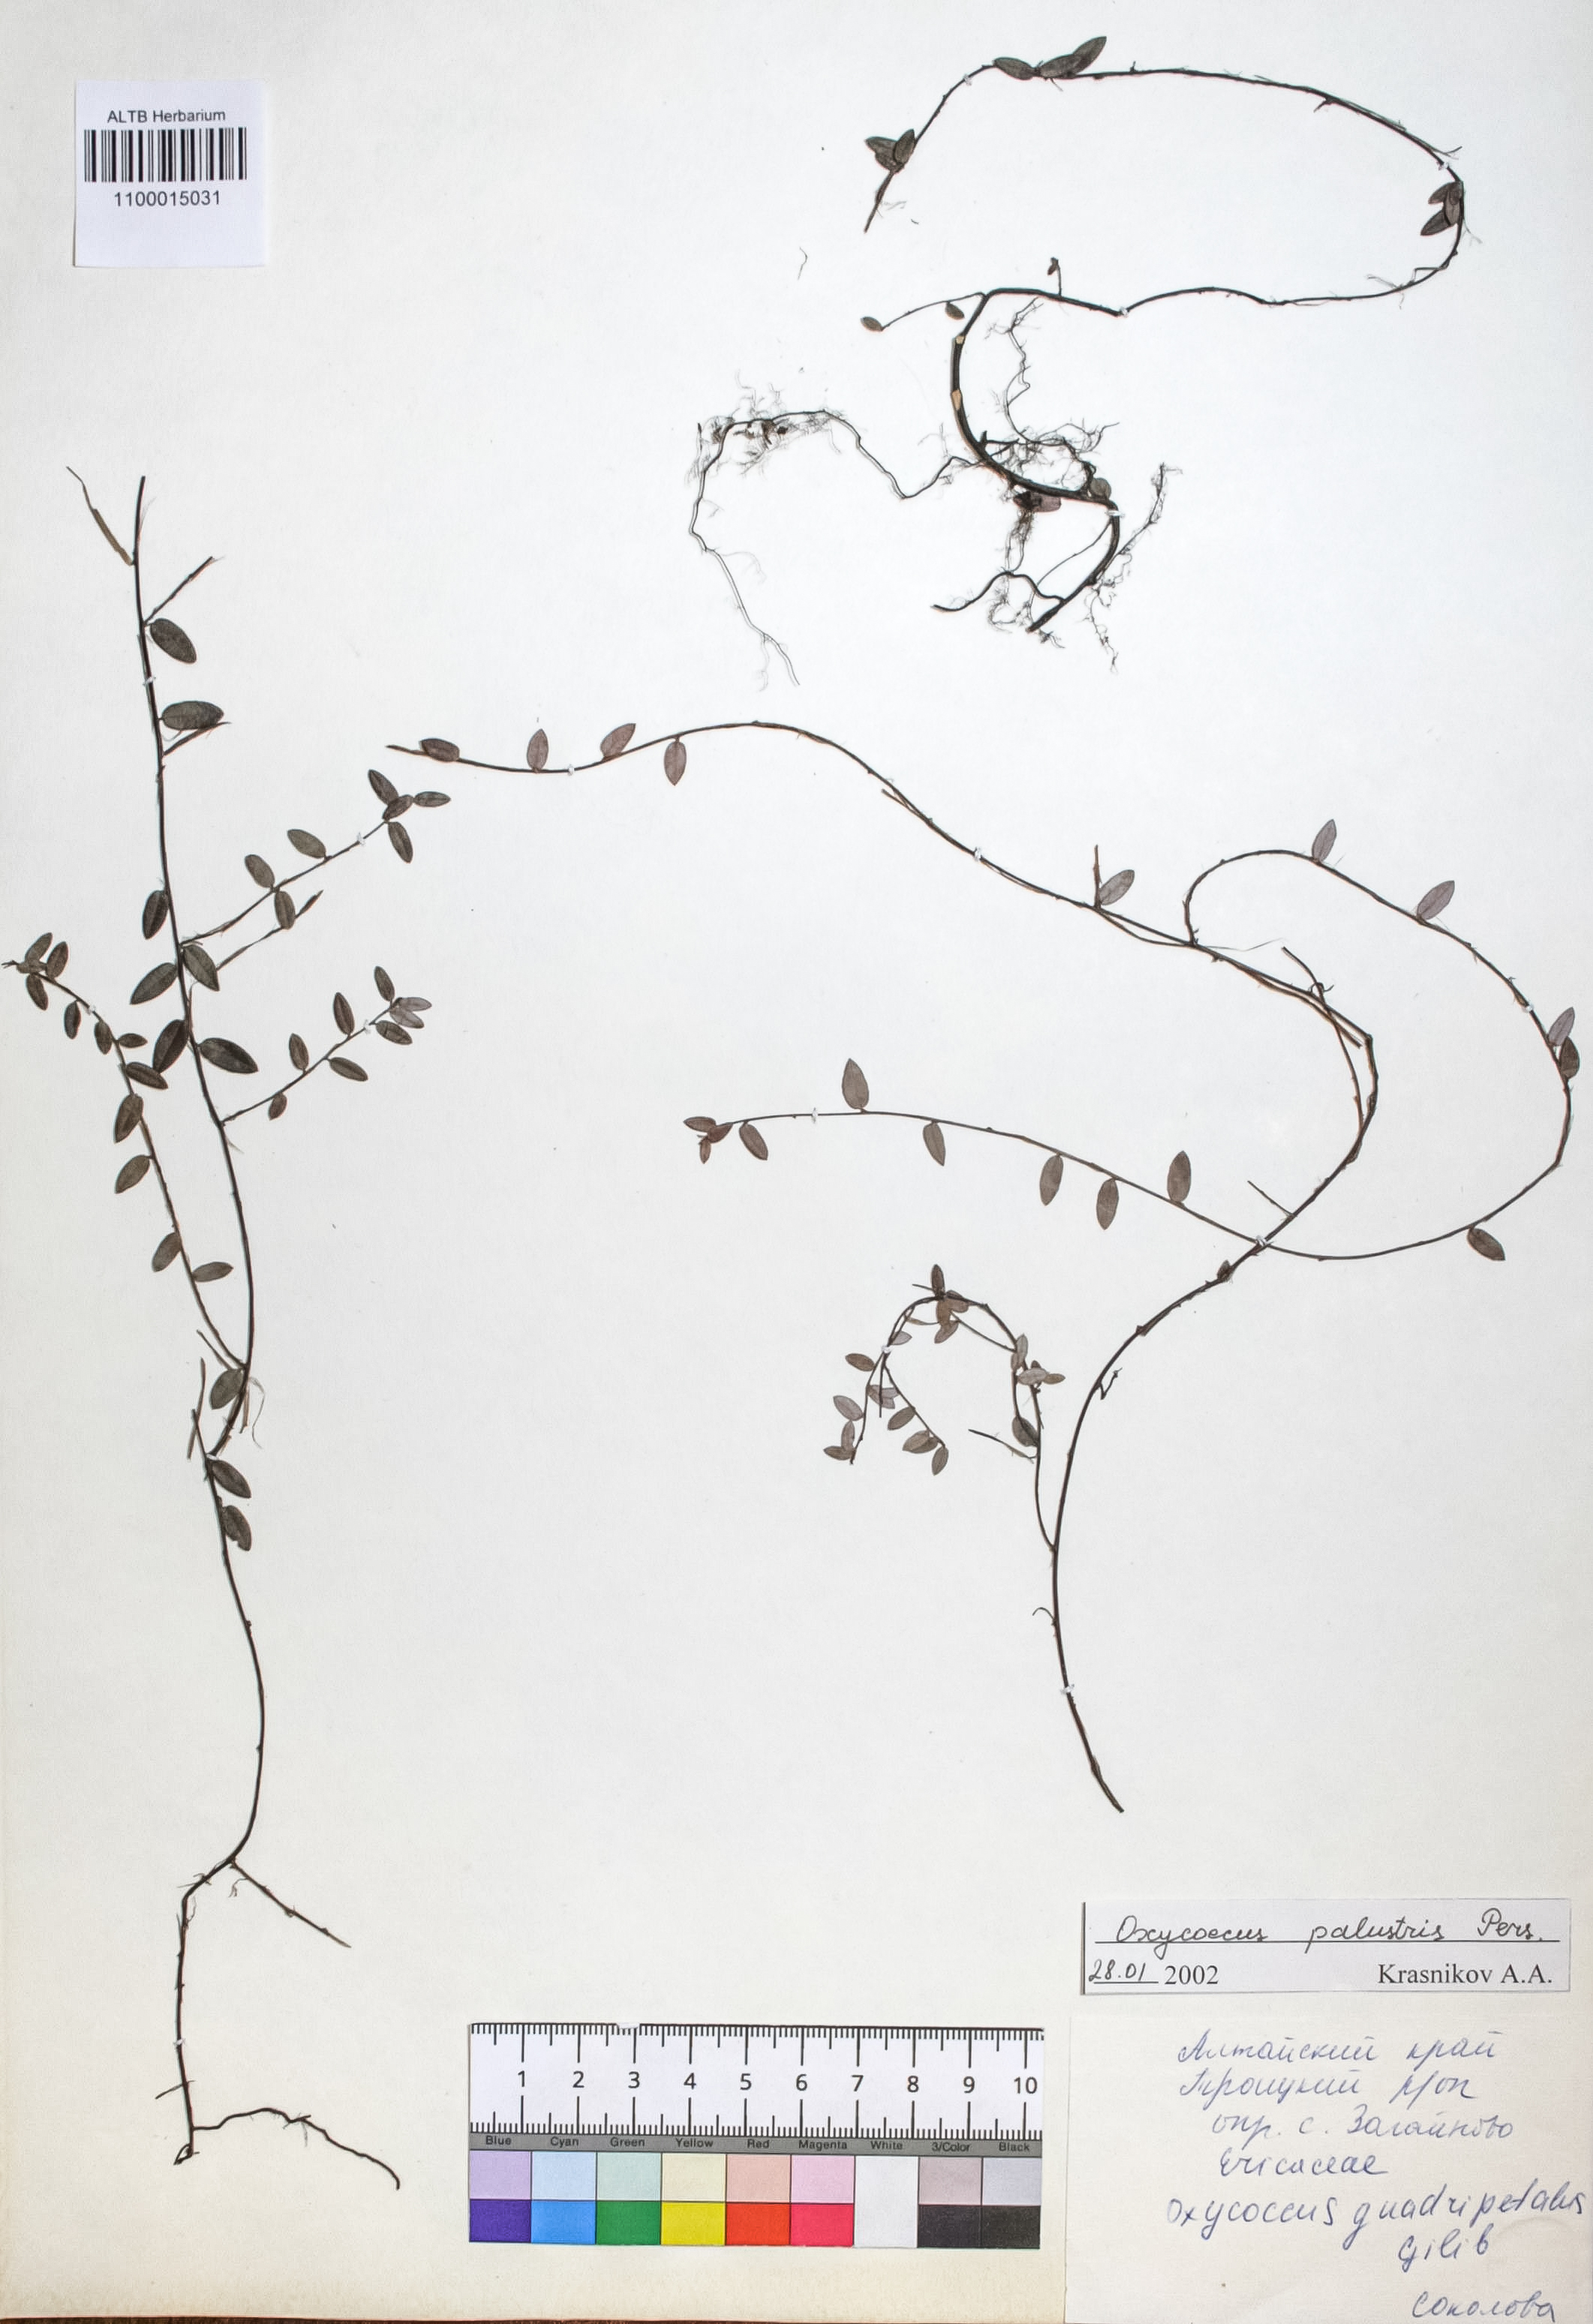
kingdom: Plantae
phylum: Tracheophyta
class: Magnoliopsida
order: Ericales
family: Ericaceae
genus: Vaccinium
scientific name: Vaccinium oxycoccos
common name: Cranberry
